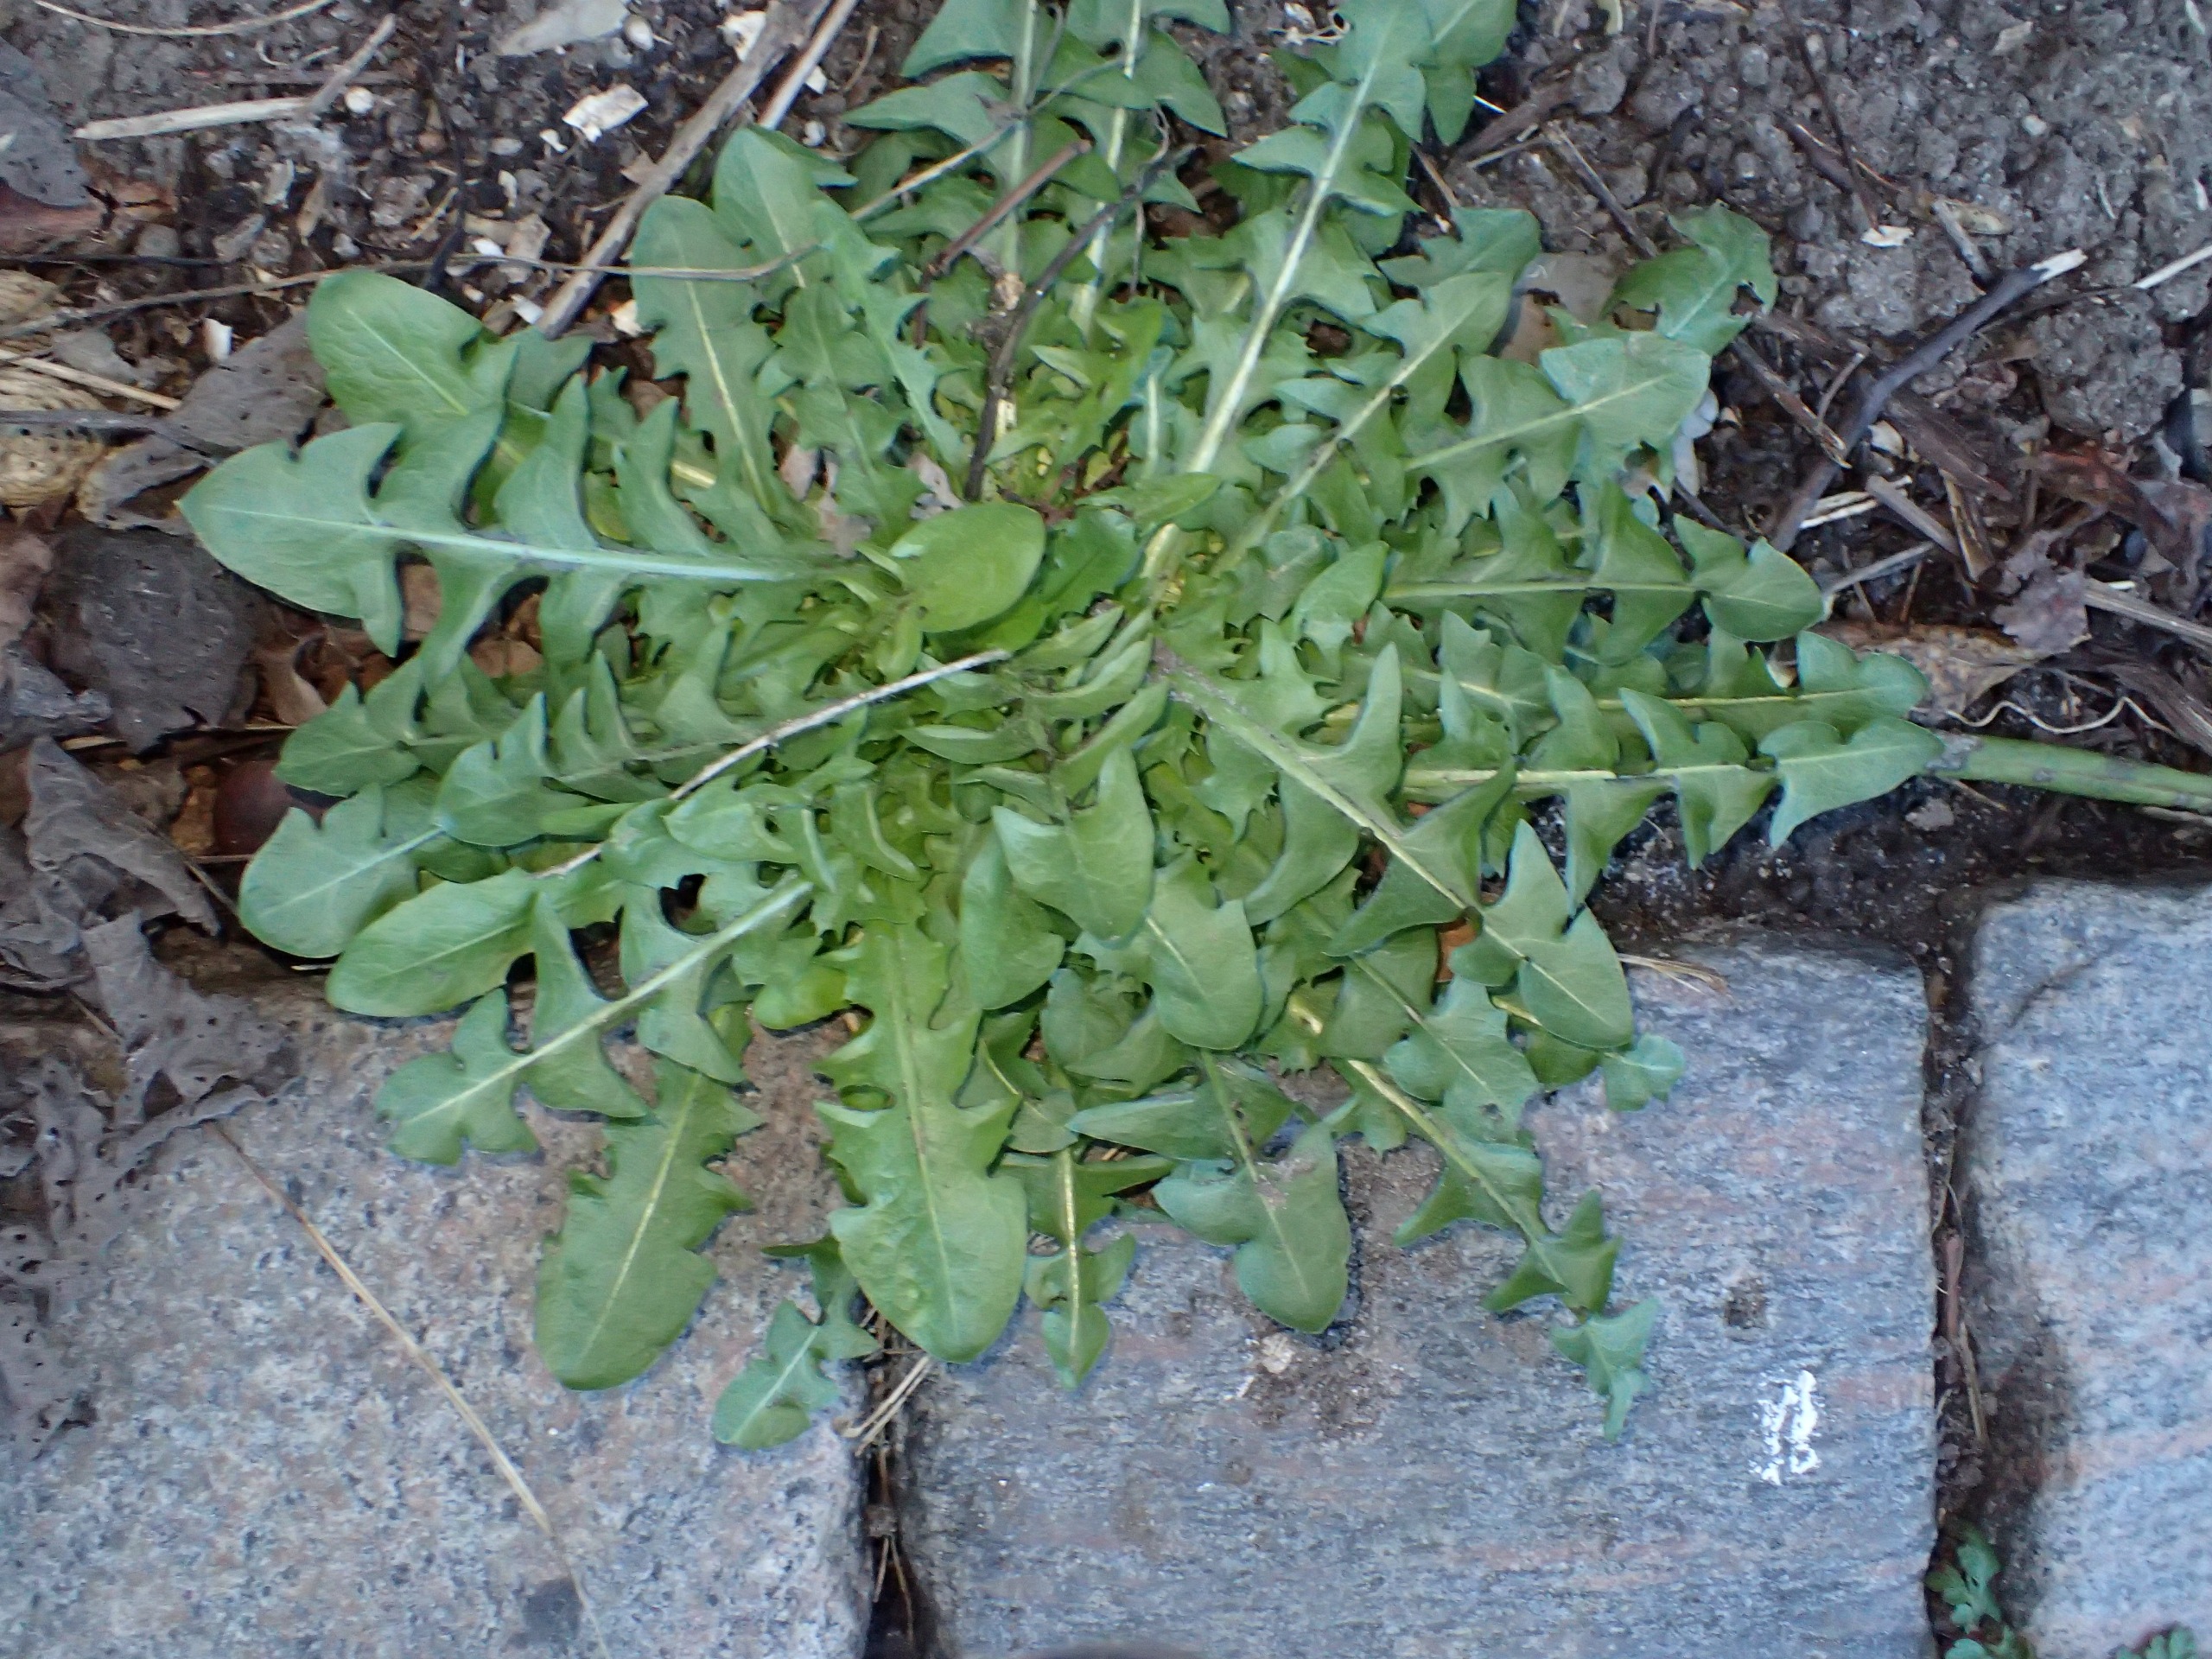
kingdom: Plantae
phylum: Tracheophyta
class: Magnoliopsida
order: Asterales
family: Asteraceae
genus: Taraxacum
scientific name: Taraxacum
